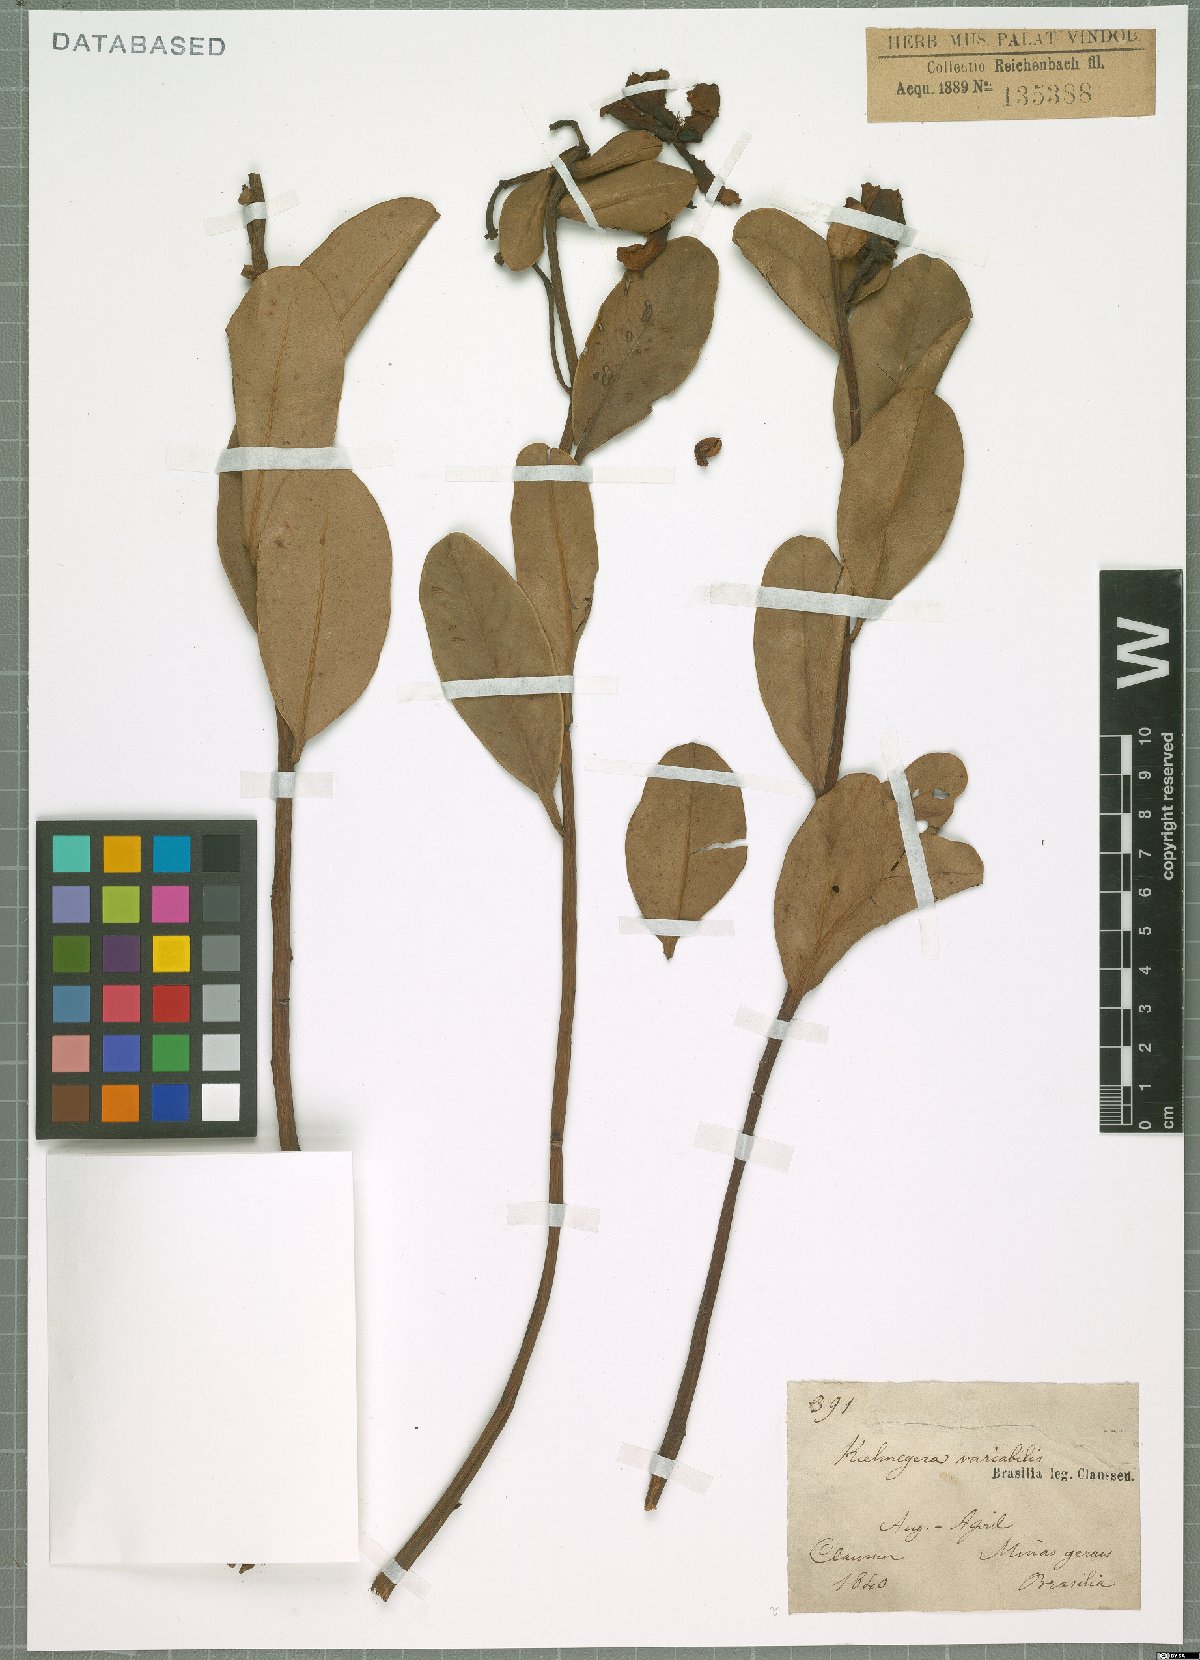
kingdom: Plantae
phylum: Tracheophyta
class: Magnoliopsida
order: Malpighiales
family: Calophyllaceae
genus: Kielmeyera
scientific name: Kielmeyera variabilis
